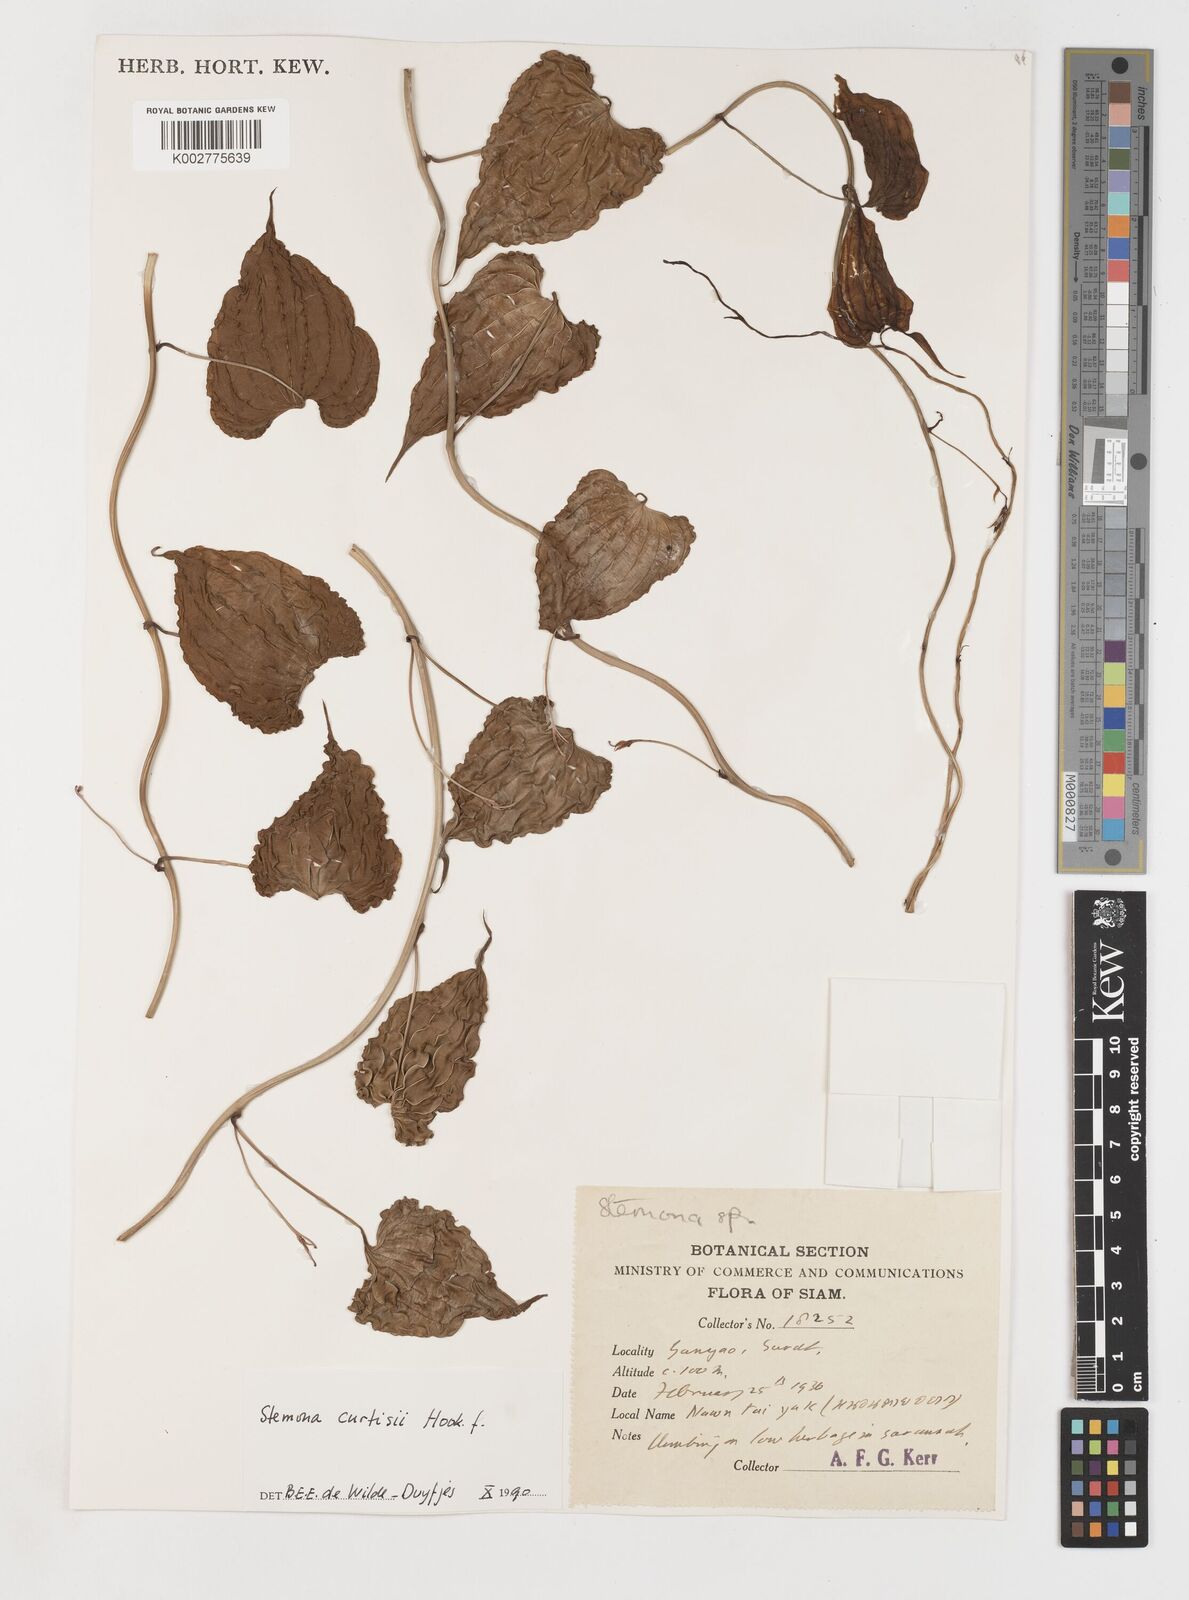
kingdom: Plantae
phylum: Tracheophyta
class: Liliopsida
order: Pandanales
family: Stemonaceae
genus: Stemona
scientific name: Stemona curtisii
